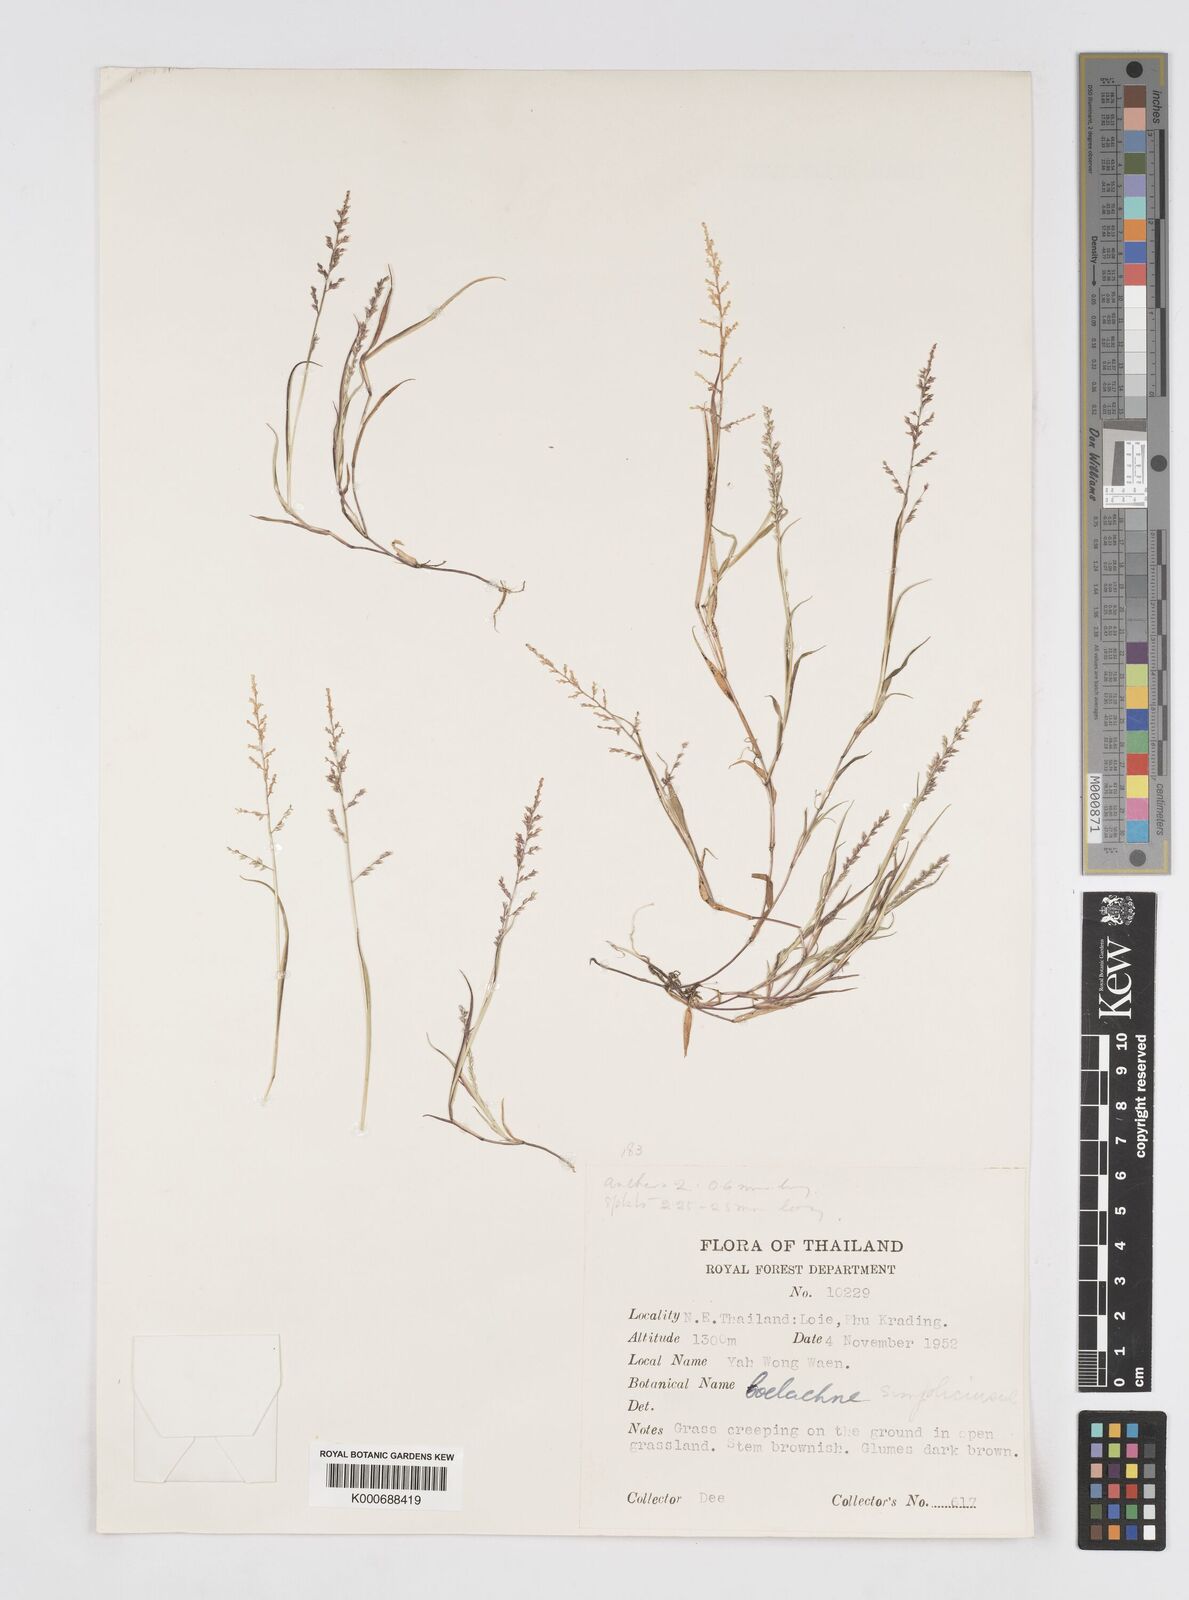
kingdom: Plantae
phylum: Tracheophyta
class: Liliopsida
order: Poales
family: Poaceae
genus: Coelachne
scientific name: Coelachne simpliciuscula
